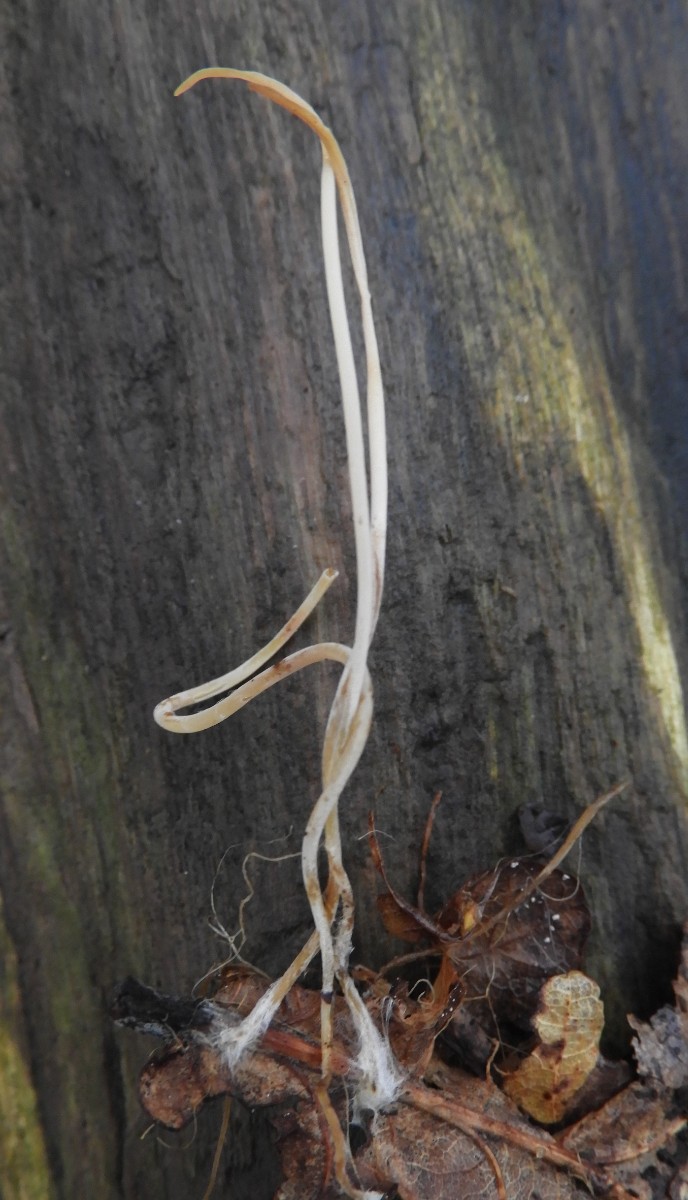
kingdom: Fungi
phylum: Basidiomycota
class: Agaricomycetes
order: Agaricales
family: Typhulaceae
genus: Typhula
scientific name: Typhula juncea
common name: trådagtig rørkølle
